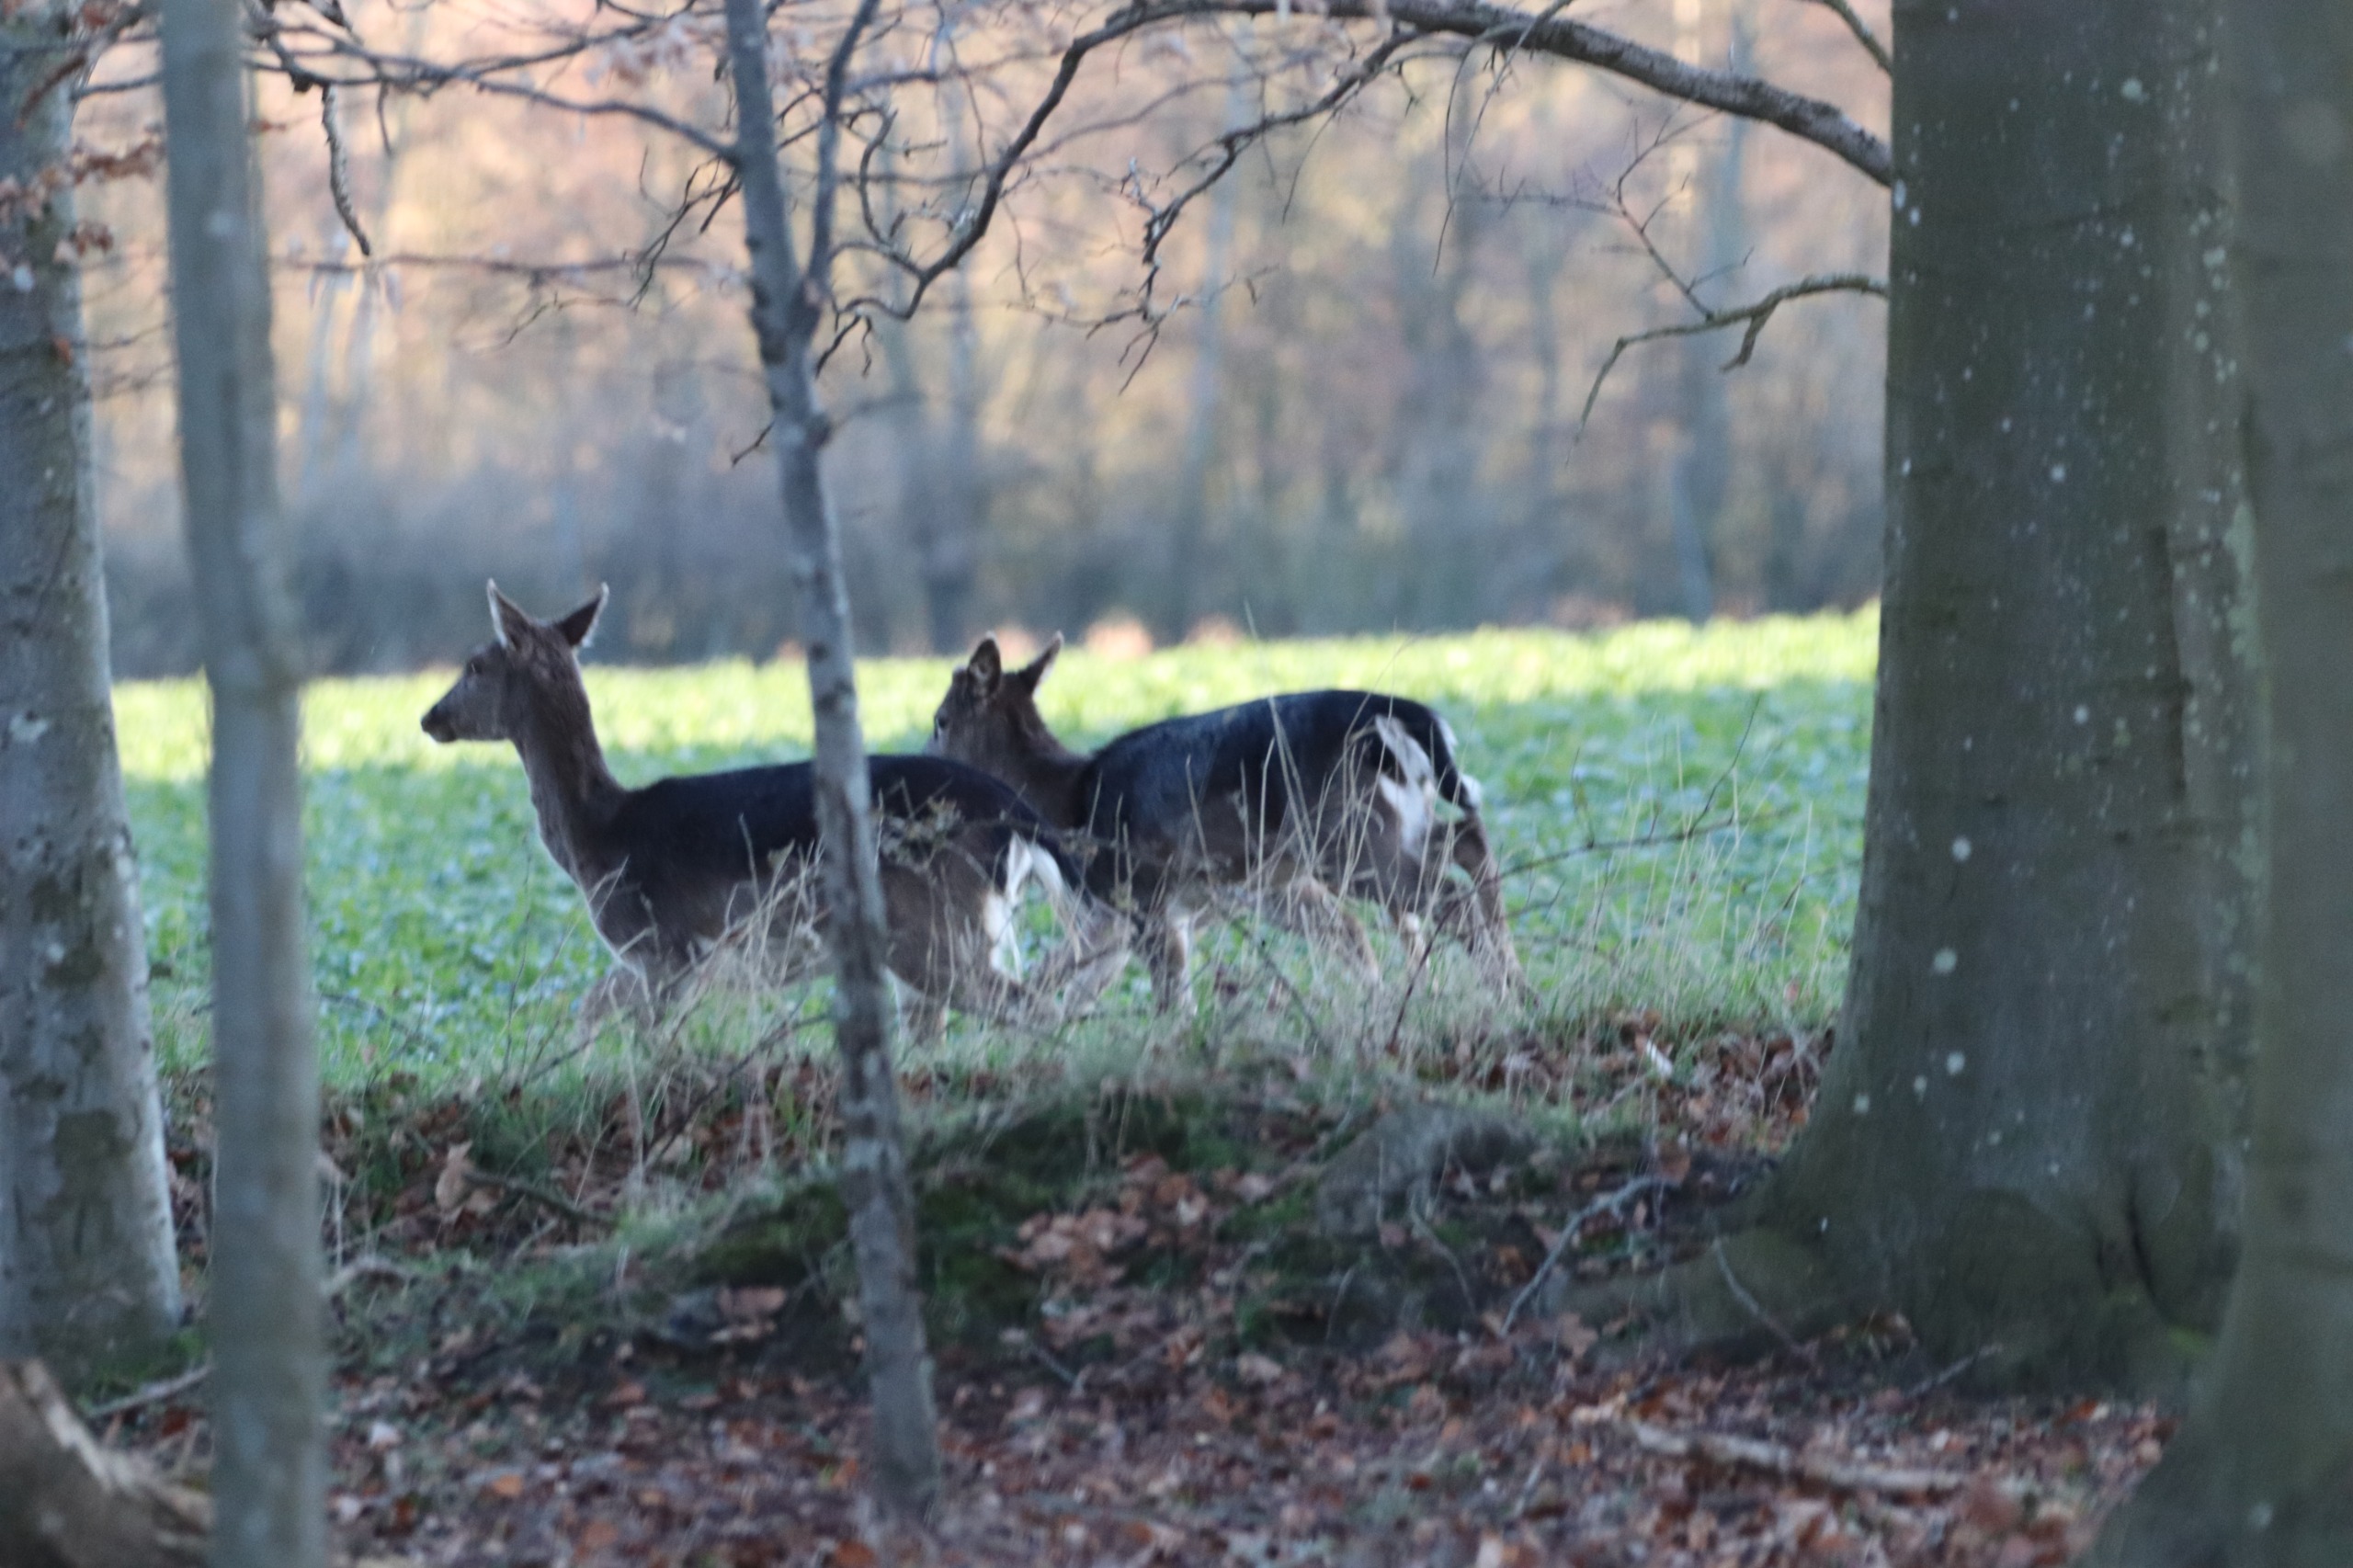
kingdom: Animalia
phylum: Chordata
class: Mammalia
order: Artiodactyla
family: Cervidae
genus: Dama
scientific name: Dama dama
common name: Dådyr
